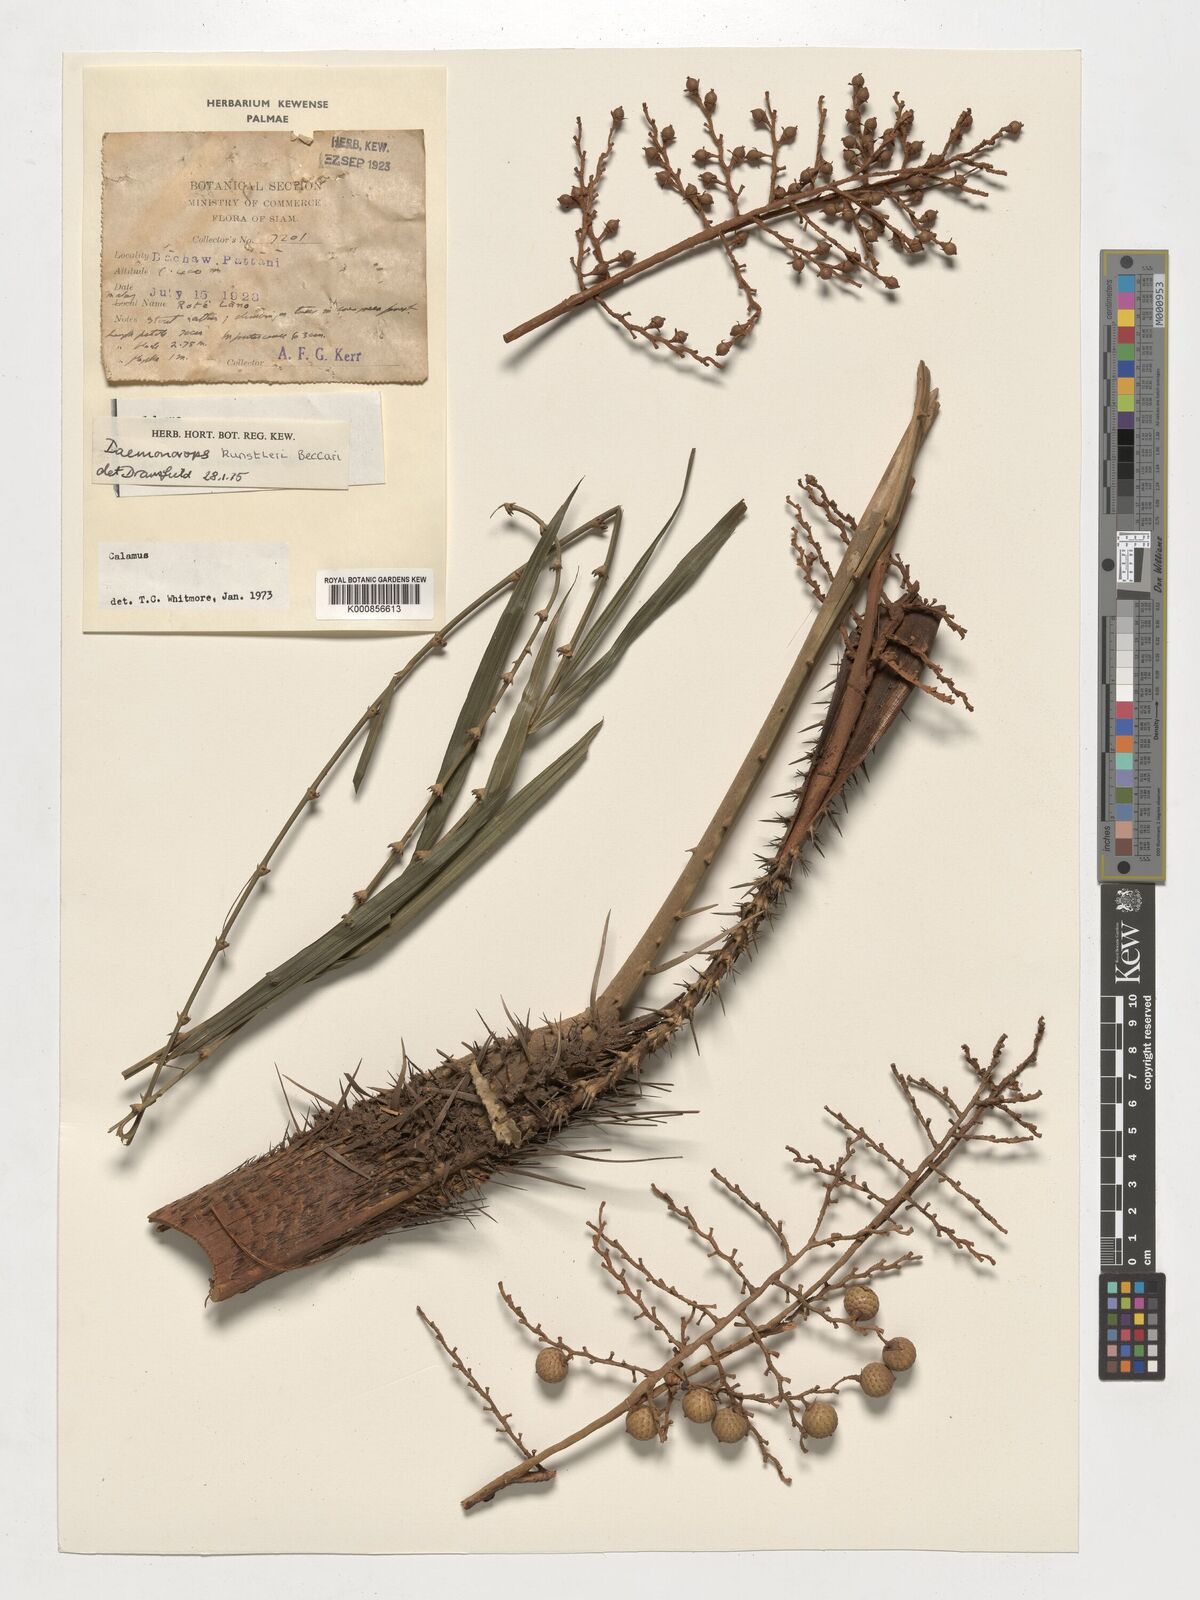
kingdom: Plantae
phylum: Tracheophyta
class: Liliopsida
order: Arecales
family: Arecaceae
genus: Calamus
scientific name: Calamus kunstleri
